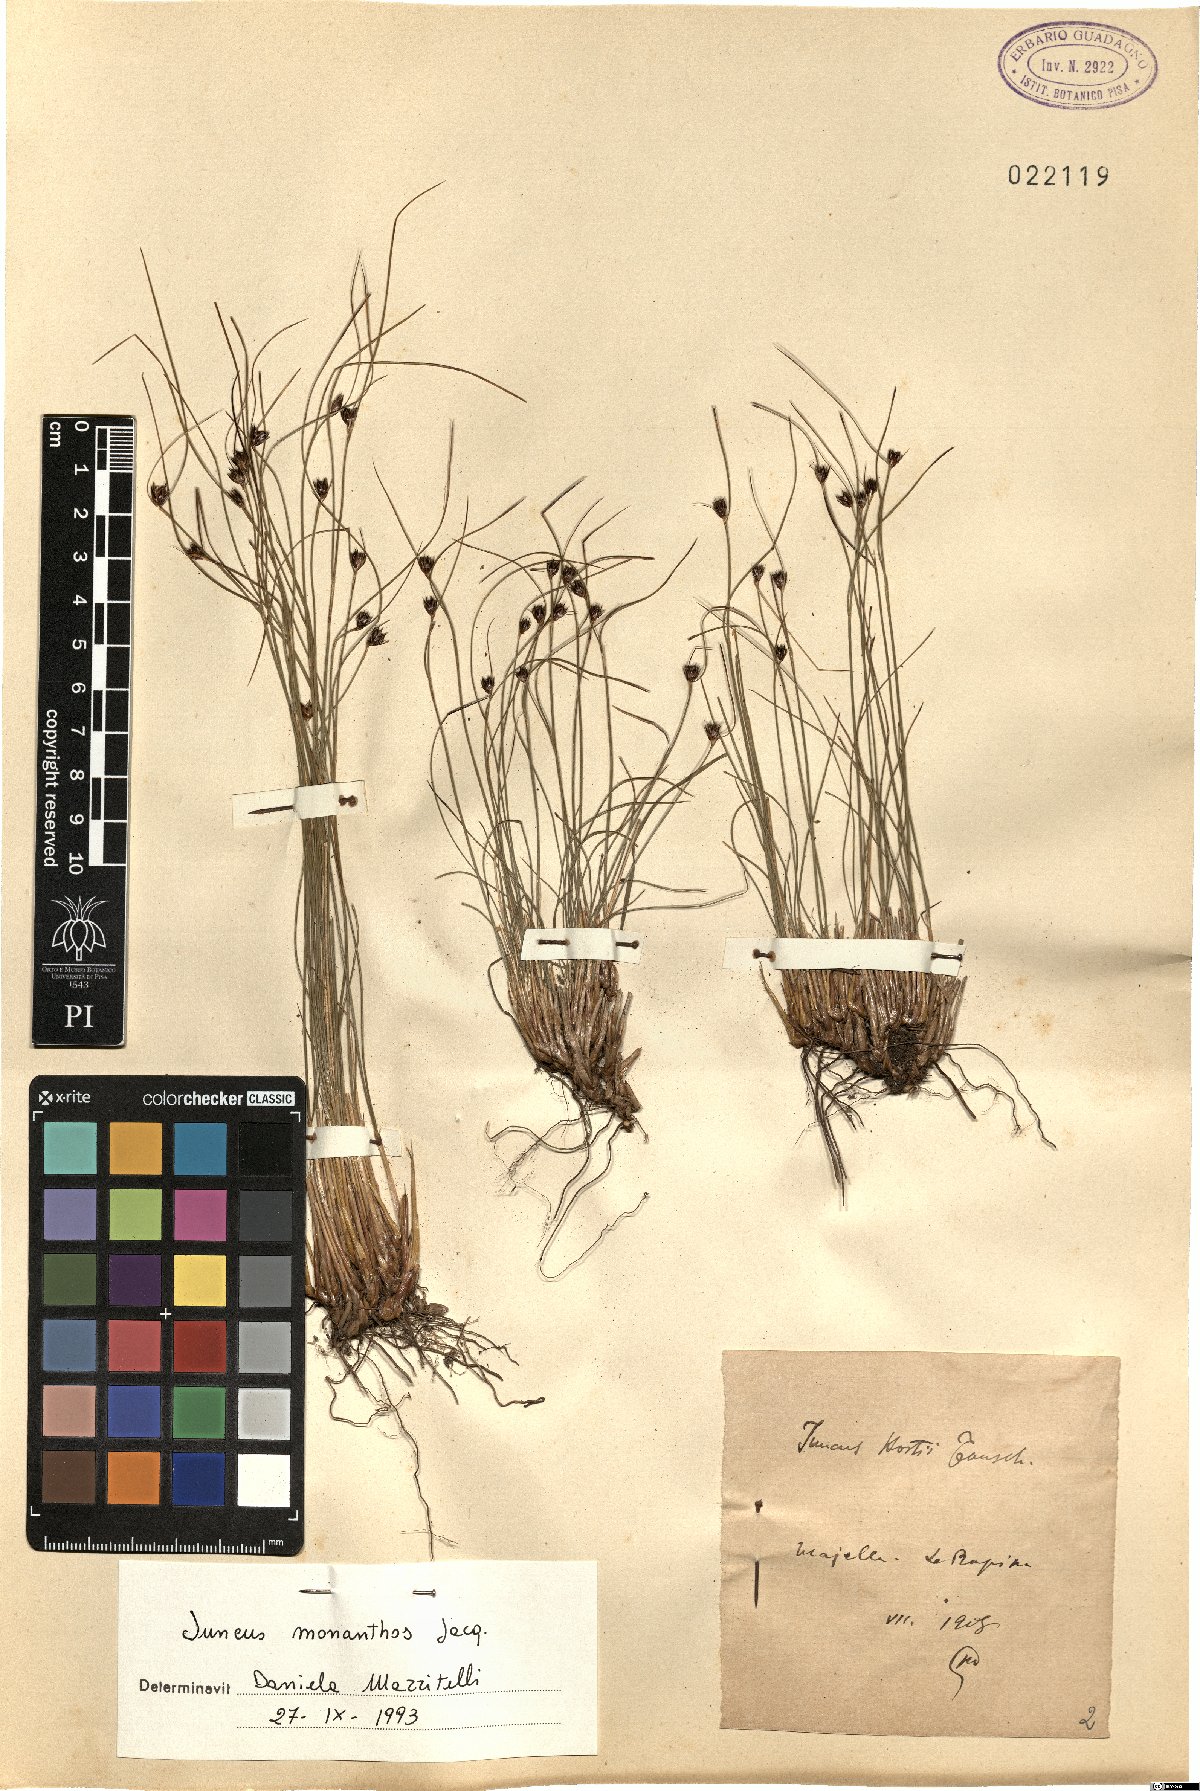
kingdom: Plantae
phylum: Tracheophyta
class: Liliopsida
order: Poales
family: Juncaceae
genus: Oreojuncus
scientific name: Oreojuncus monanthos
